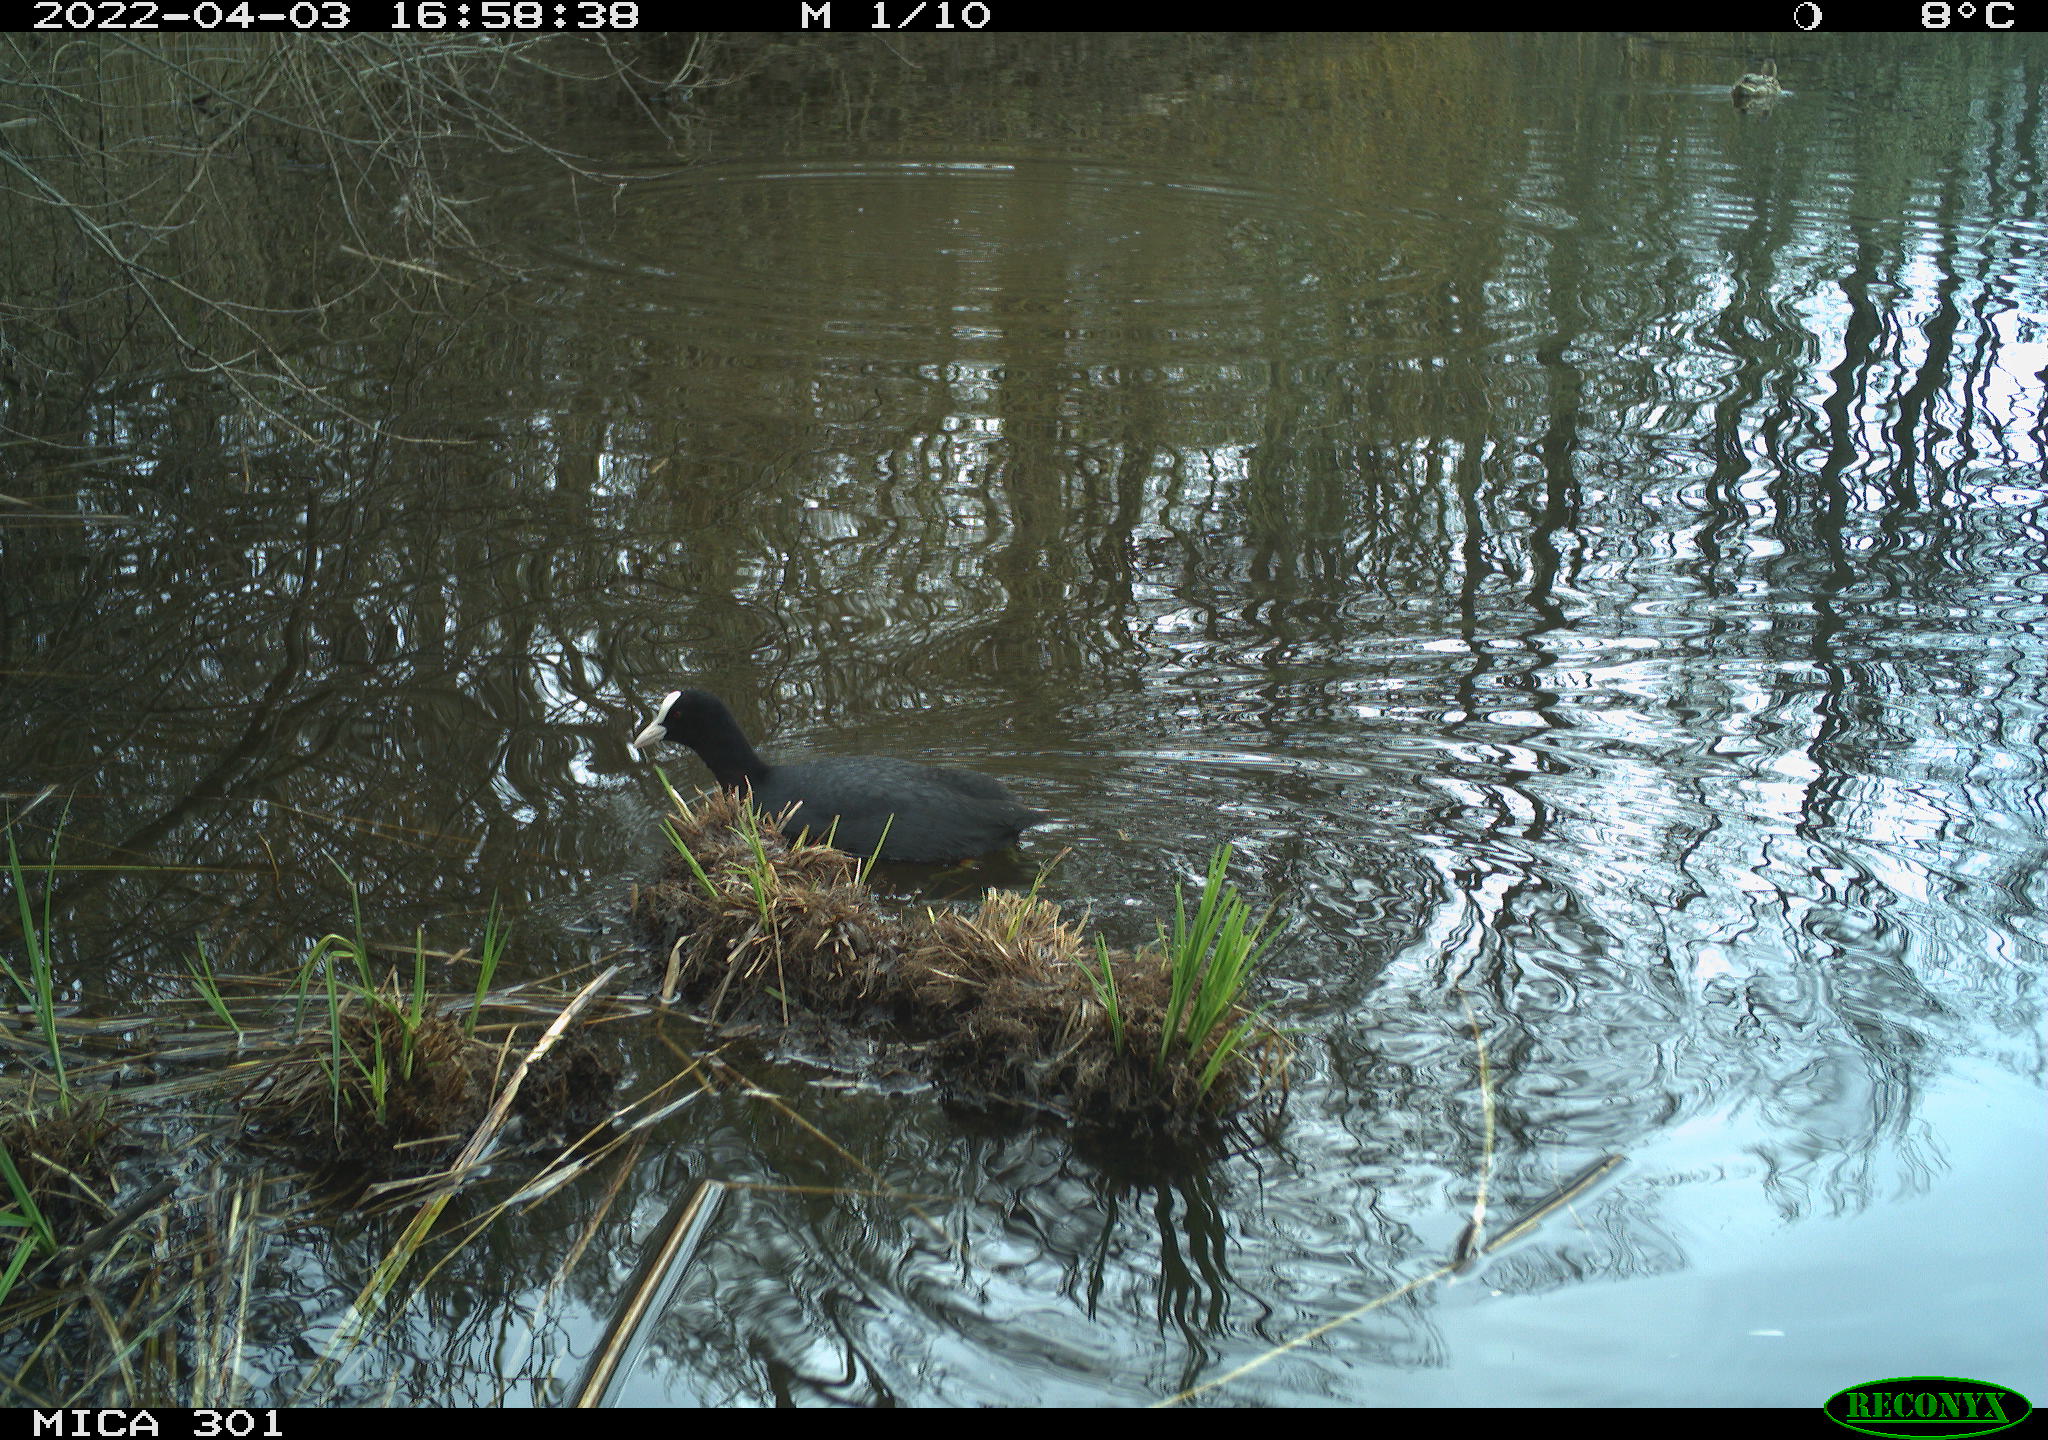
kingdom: Animalia
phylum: Chordata
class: Aves
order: Gruiformes
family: Rallidae
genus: Fulica
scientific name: Fulica atra
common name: Eurasian coot
